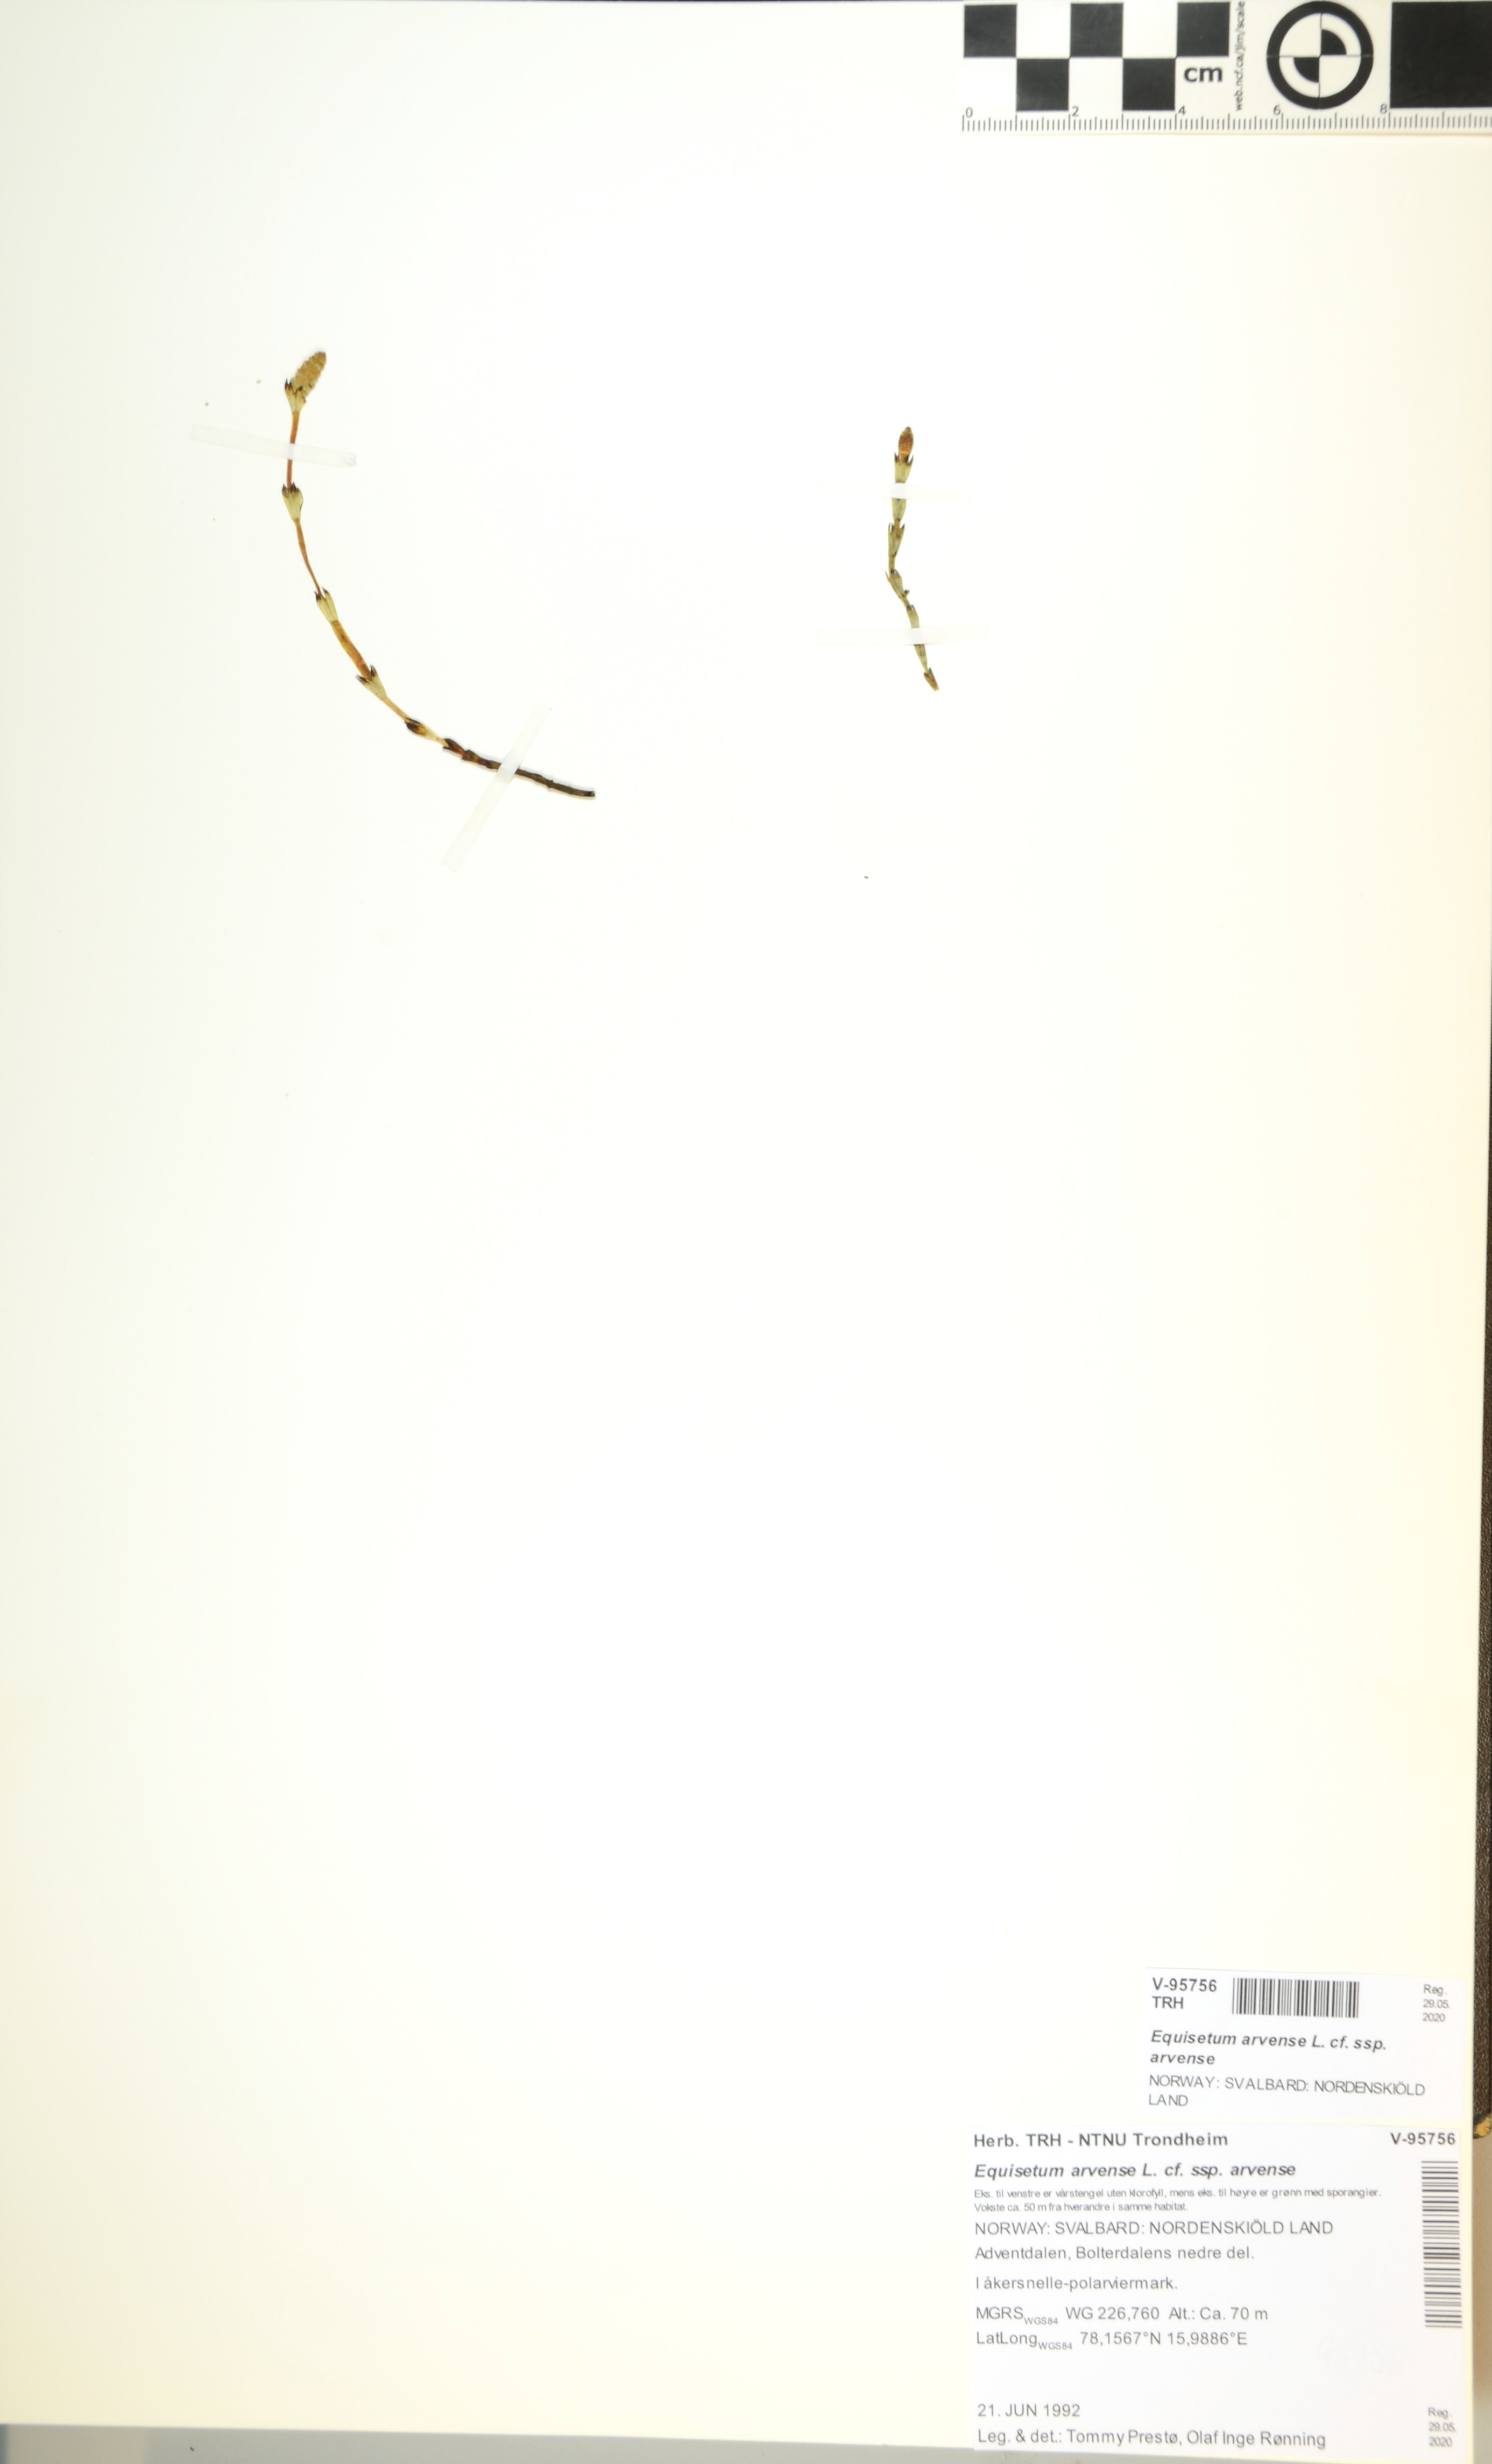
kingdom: Plantae
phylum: Tracheophyta
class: Polypodiopsida
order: Equisetales
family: Equisetaceae
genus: Equisetum
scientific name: Equisetum arvense
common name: Field horsetail
